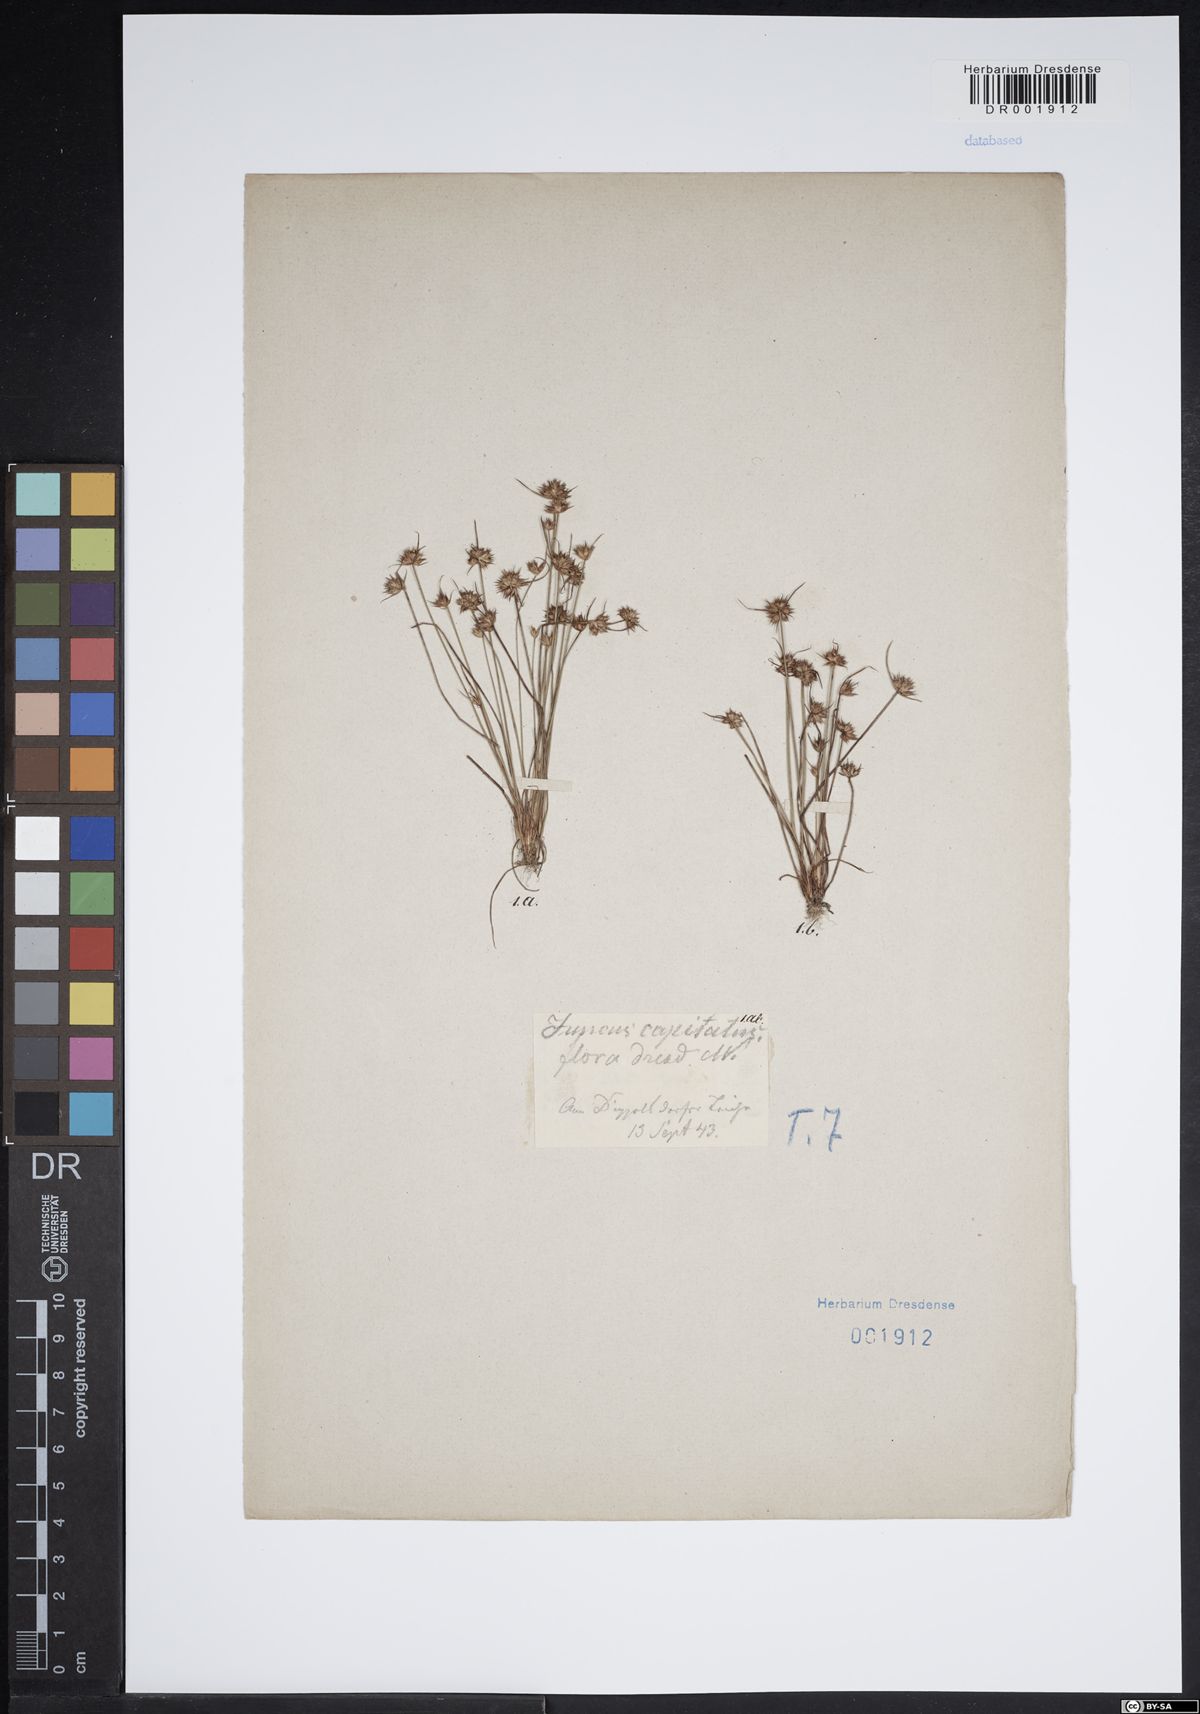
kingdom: Plantae
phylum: Tracheophyta
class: Liliopsida
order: Poales
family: Juncaceae
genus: Juncus
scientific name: Juncus capitatus
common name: Dwarf rush
